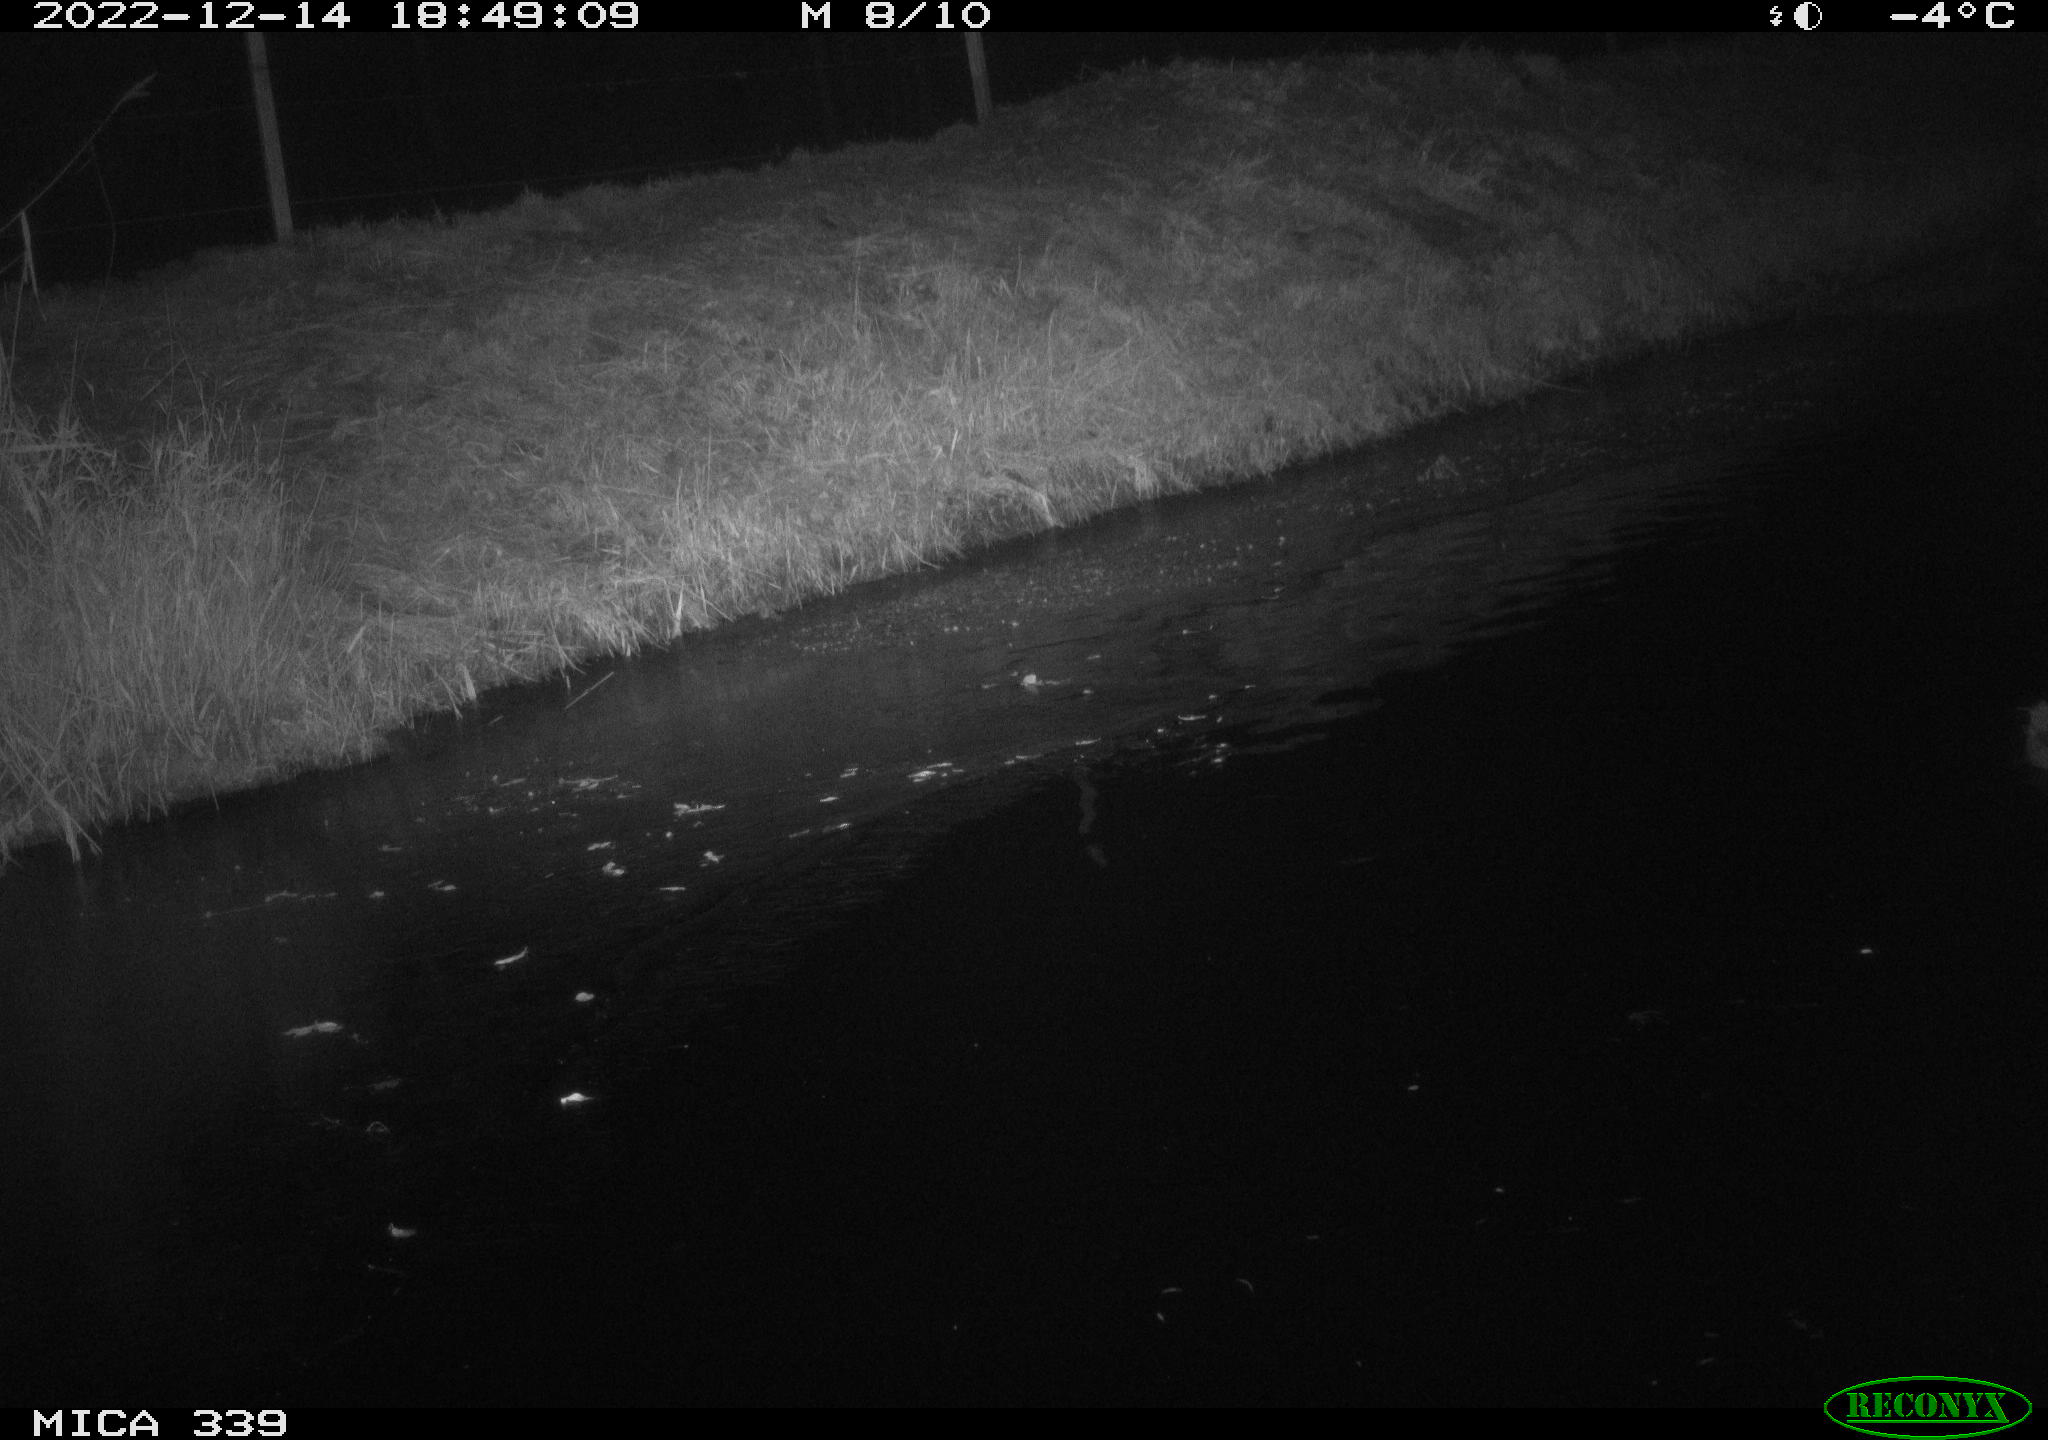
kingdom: Animalia
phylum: Chordata
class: Aves
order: Anseriformes
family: Anatidae
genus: Anas
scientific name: Anas
